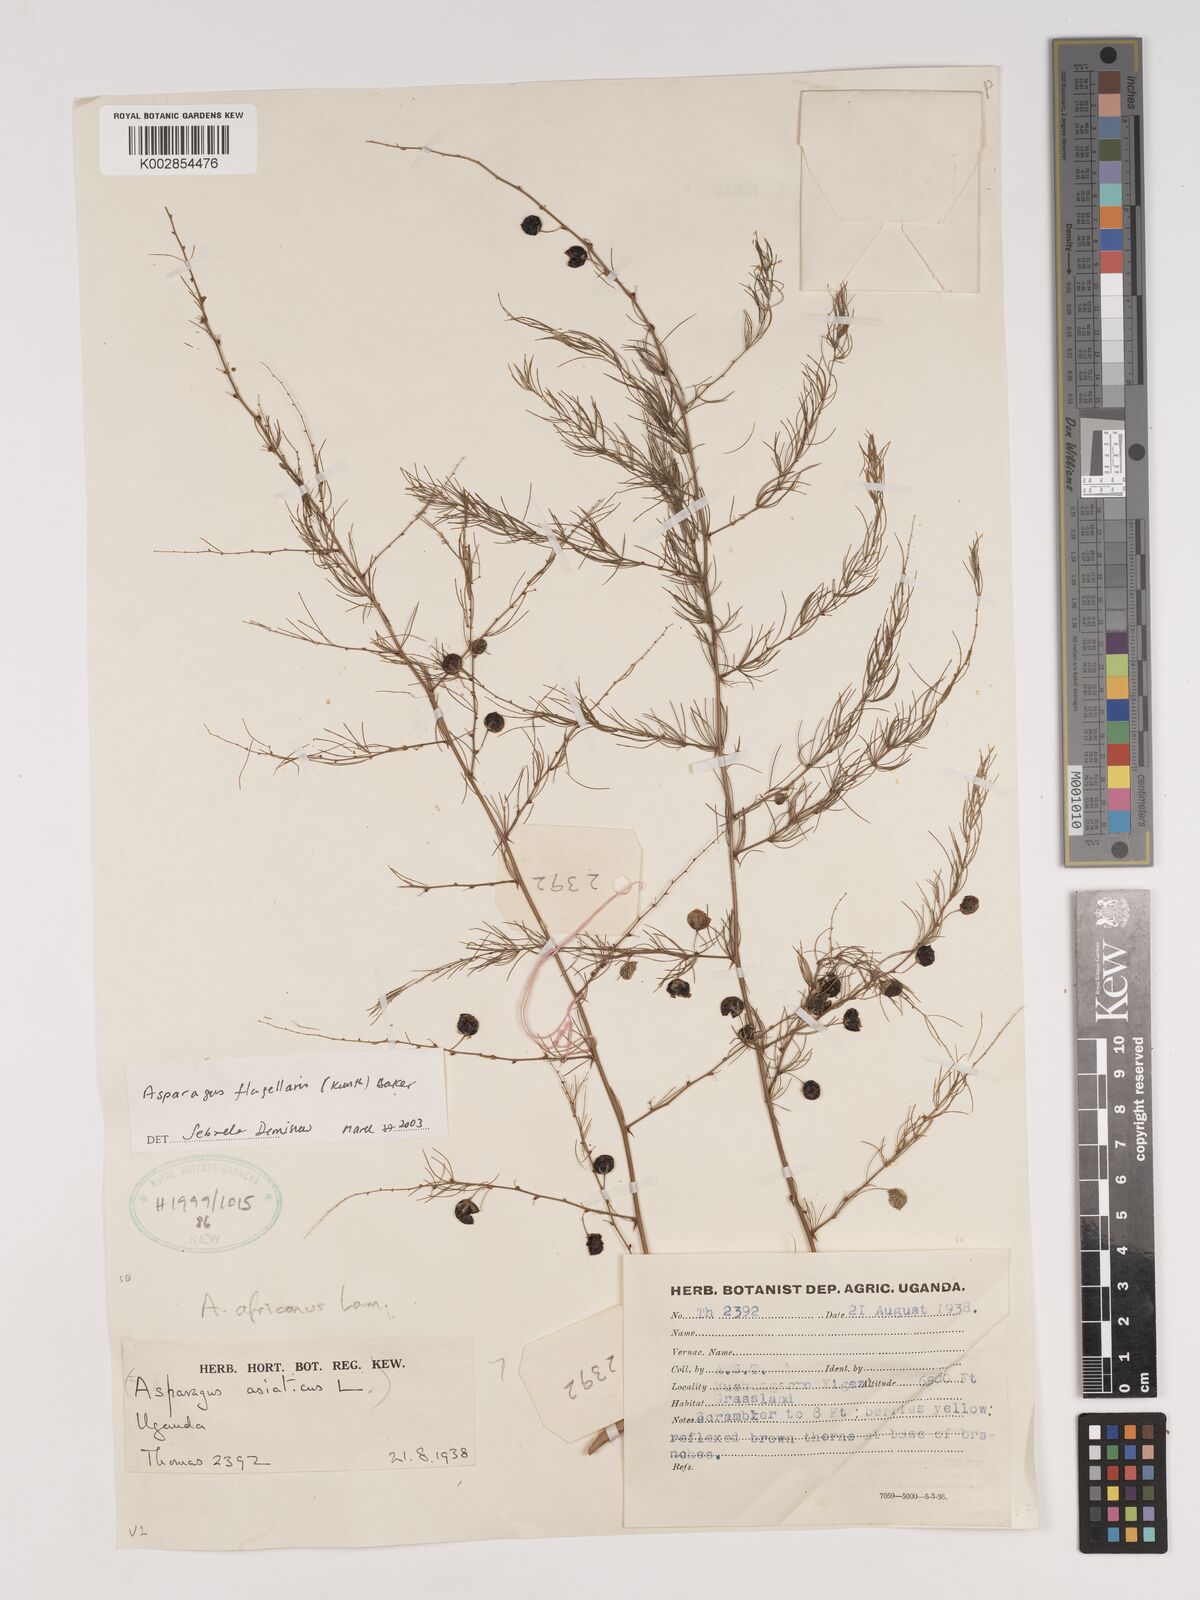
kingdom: Plantae
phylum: Tracheophyta
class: Liliopsida
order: Asparagales
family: Asparagaceae
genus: Asparagus
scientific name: Asparagus flagellaris
